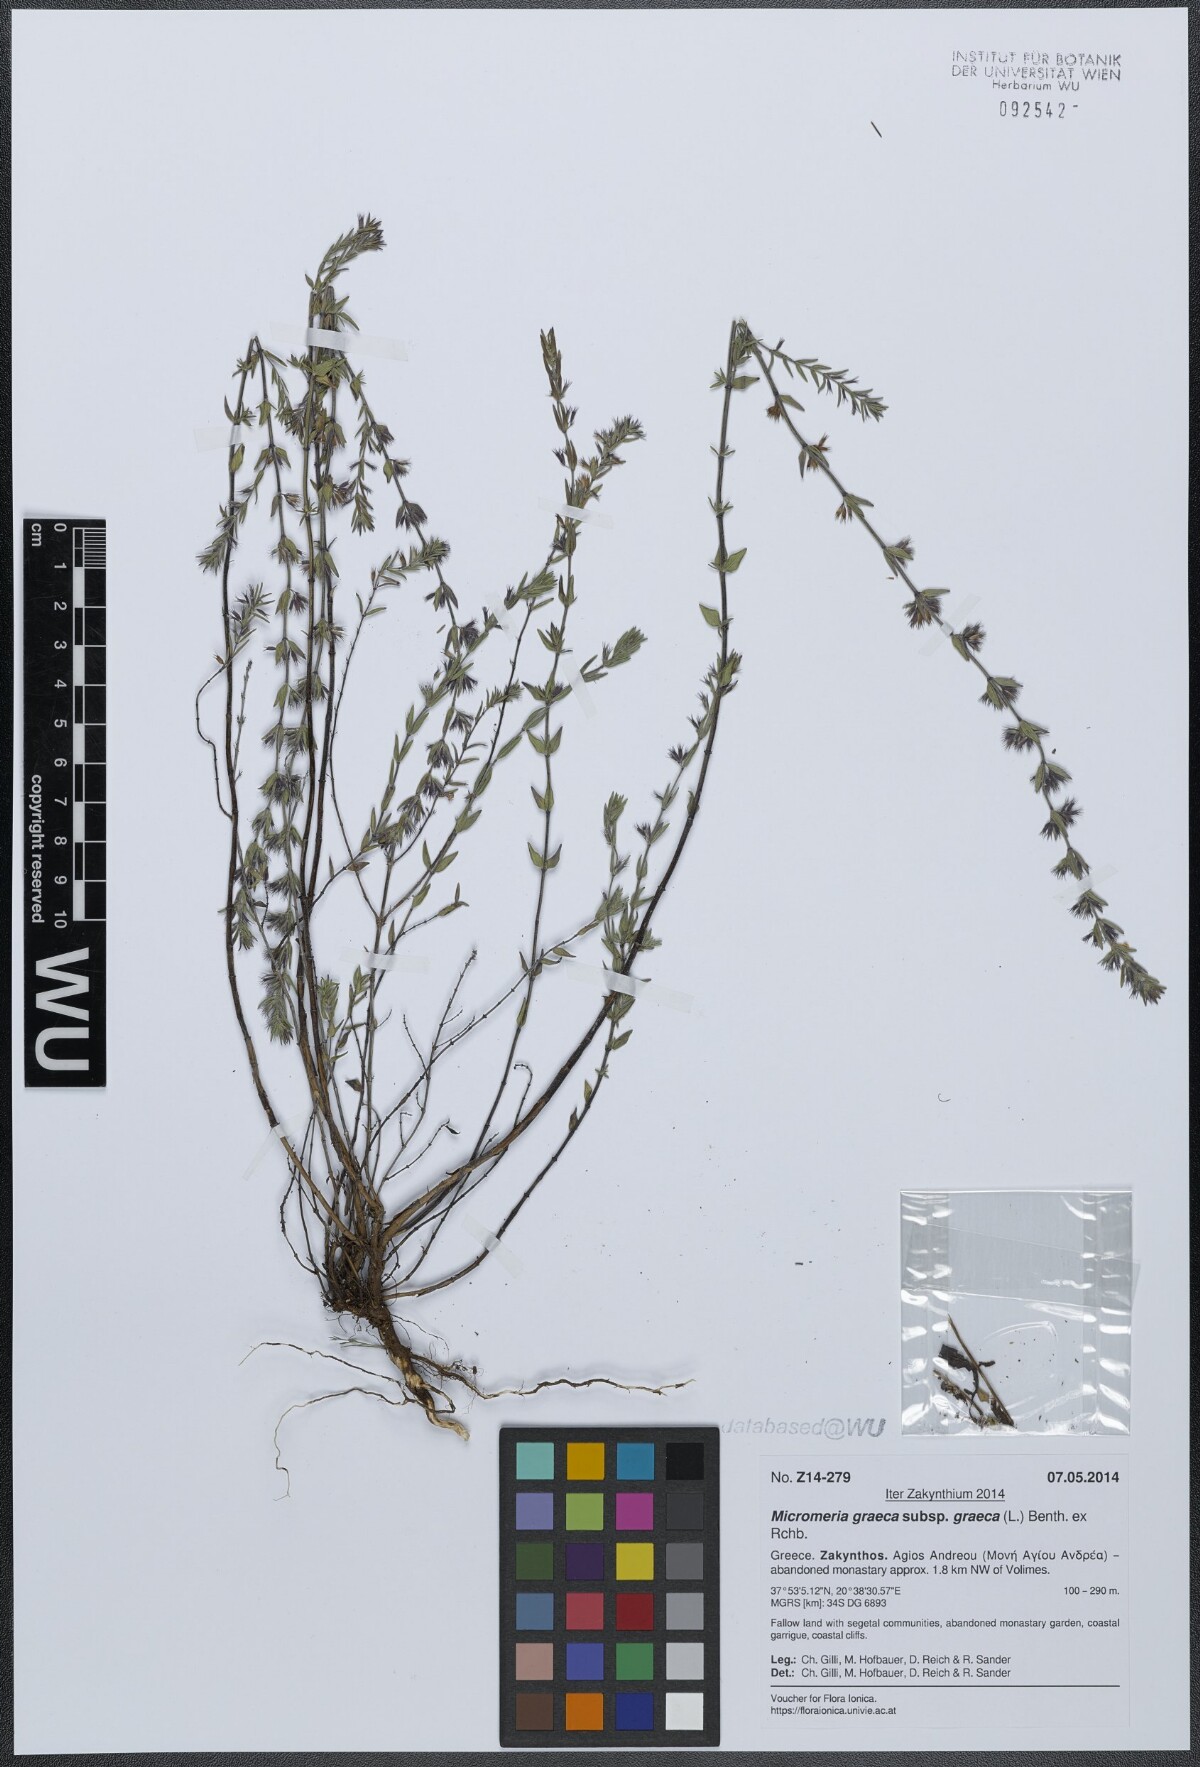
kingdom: Plantae
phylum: Tracheophyta
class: Magnoliopsida
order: Lamiales
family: Lamiaceae
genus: Micromeria
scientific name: Micromeria graeca
